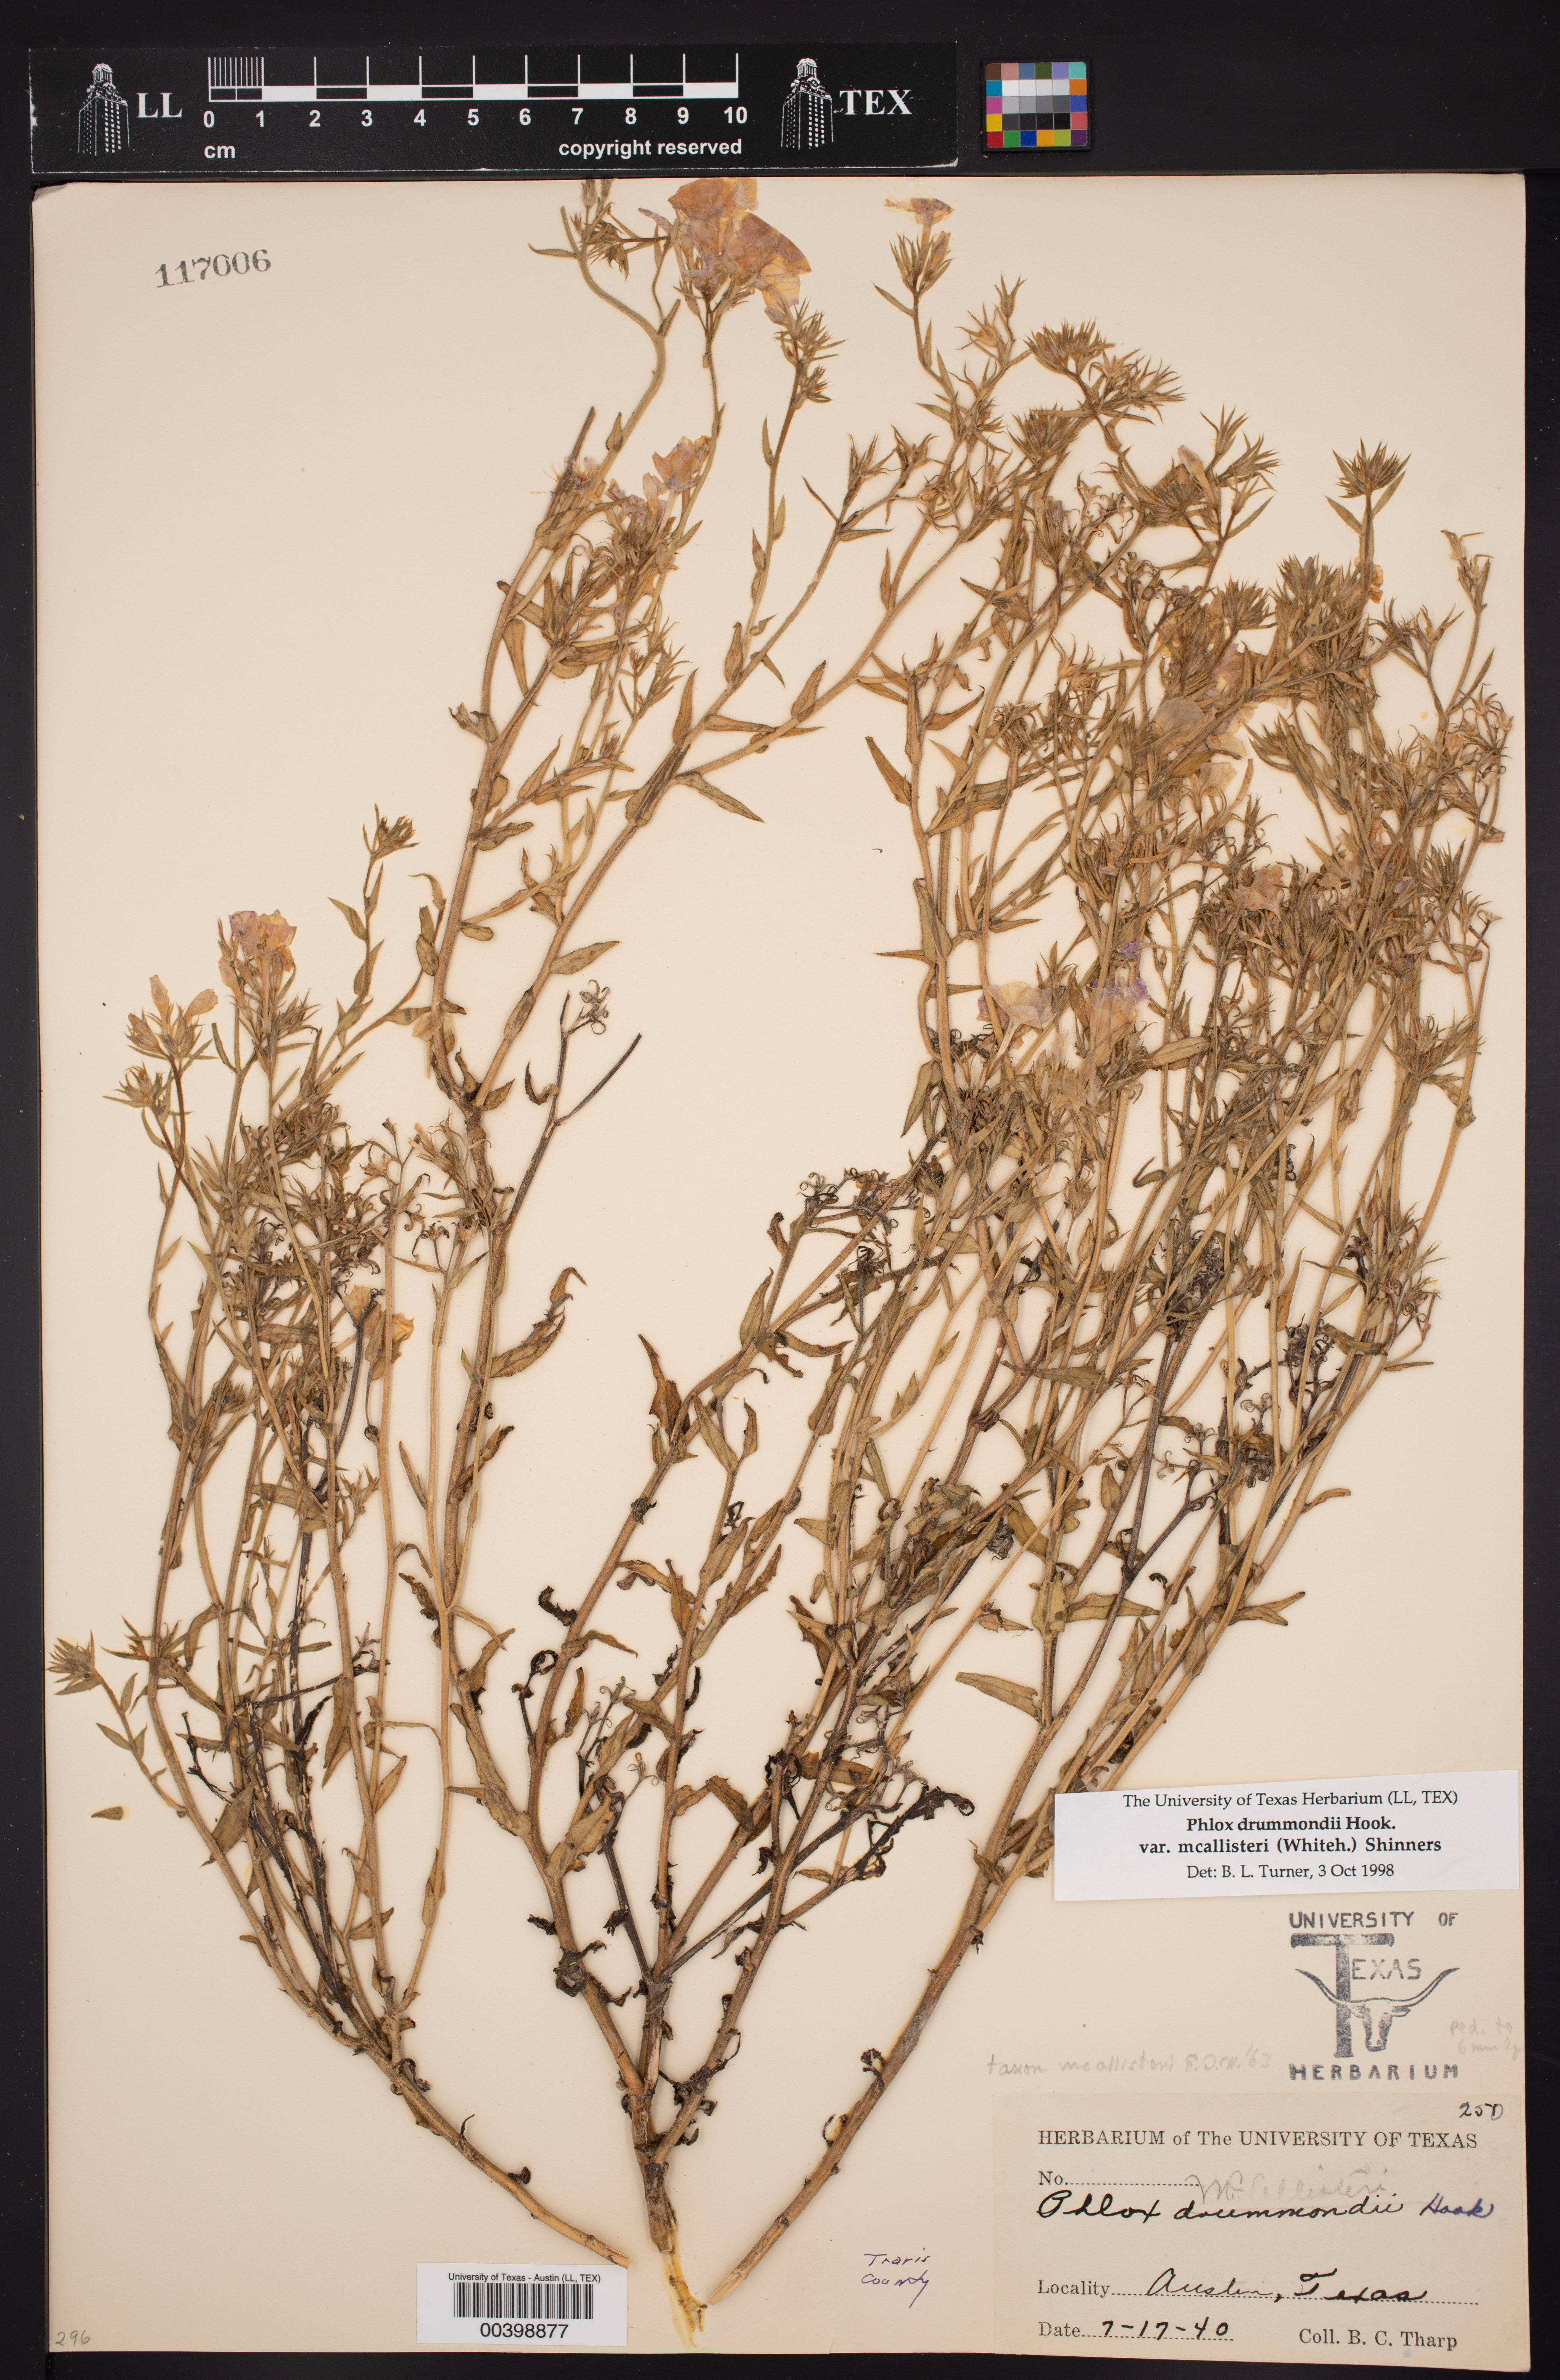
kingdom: Plantae
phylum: Tracheophyta
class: Magnoliopsida
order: Ericales
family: Polemoniaceae
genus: Phlox
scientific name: Phlox drummondii
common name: Drummond's phlox
